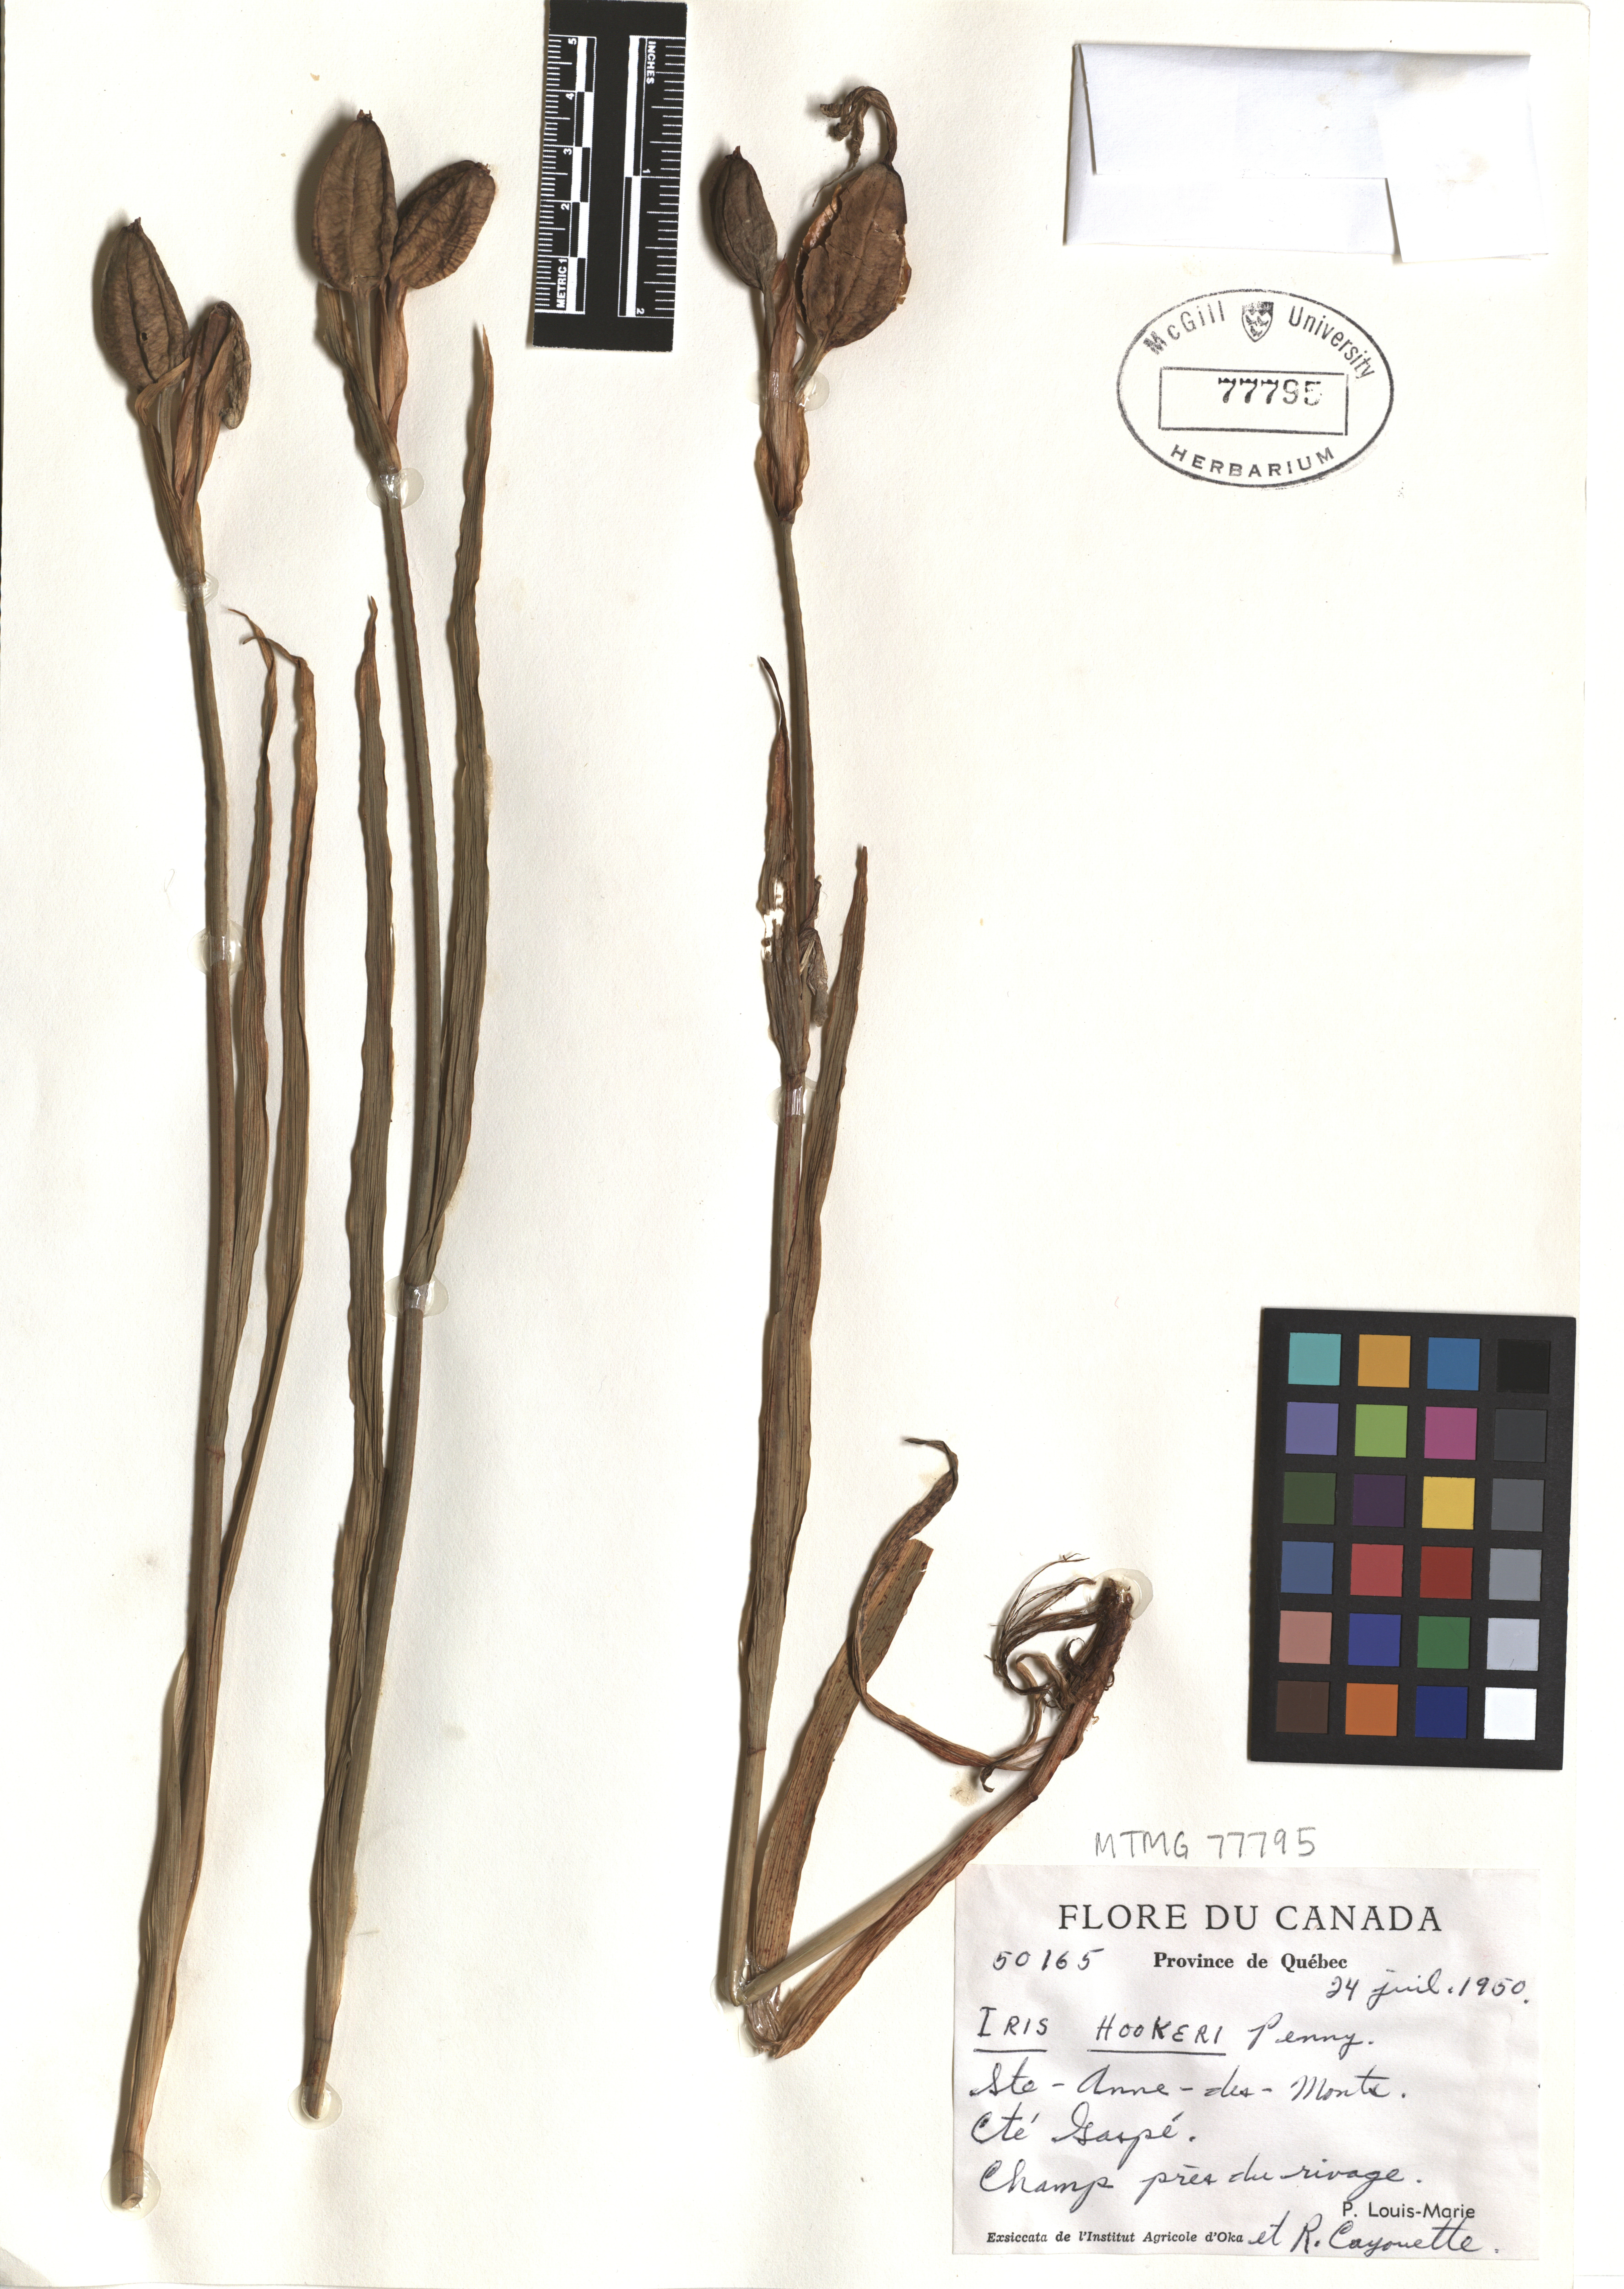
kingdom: Plantae
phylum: Tracheophyta
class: Liliopsida
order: Asparagales
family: Iridaceae
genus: Iris
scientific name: Iris hookeri
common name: Canada beach-head iris
